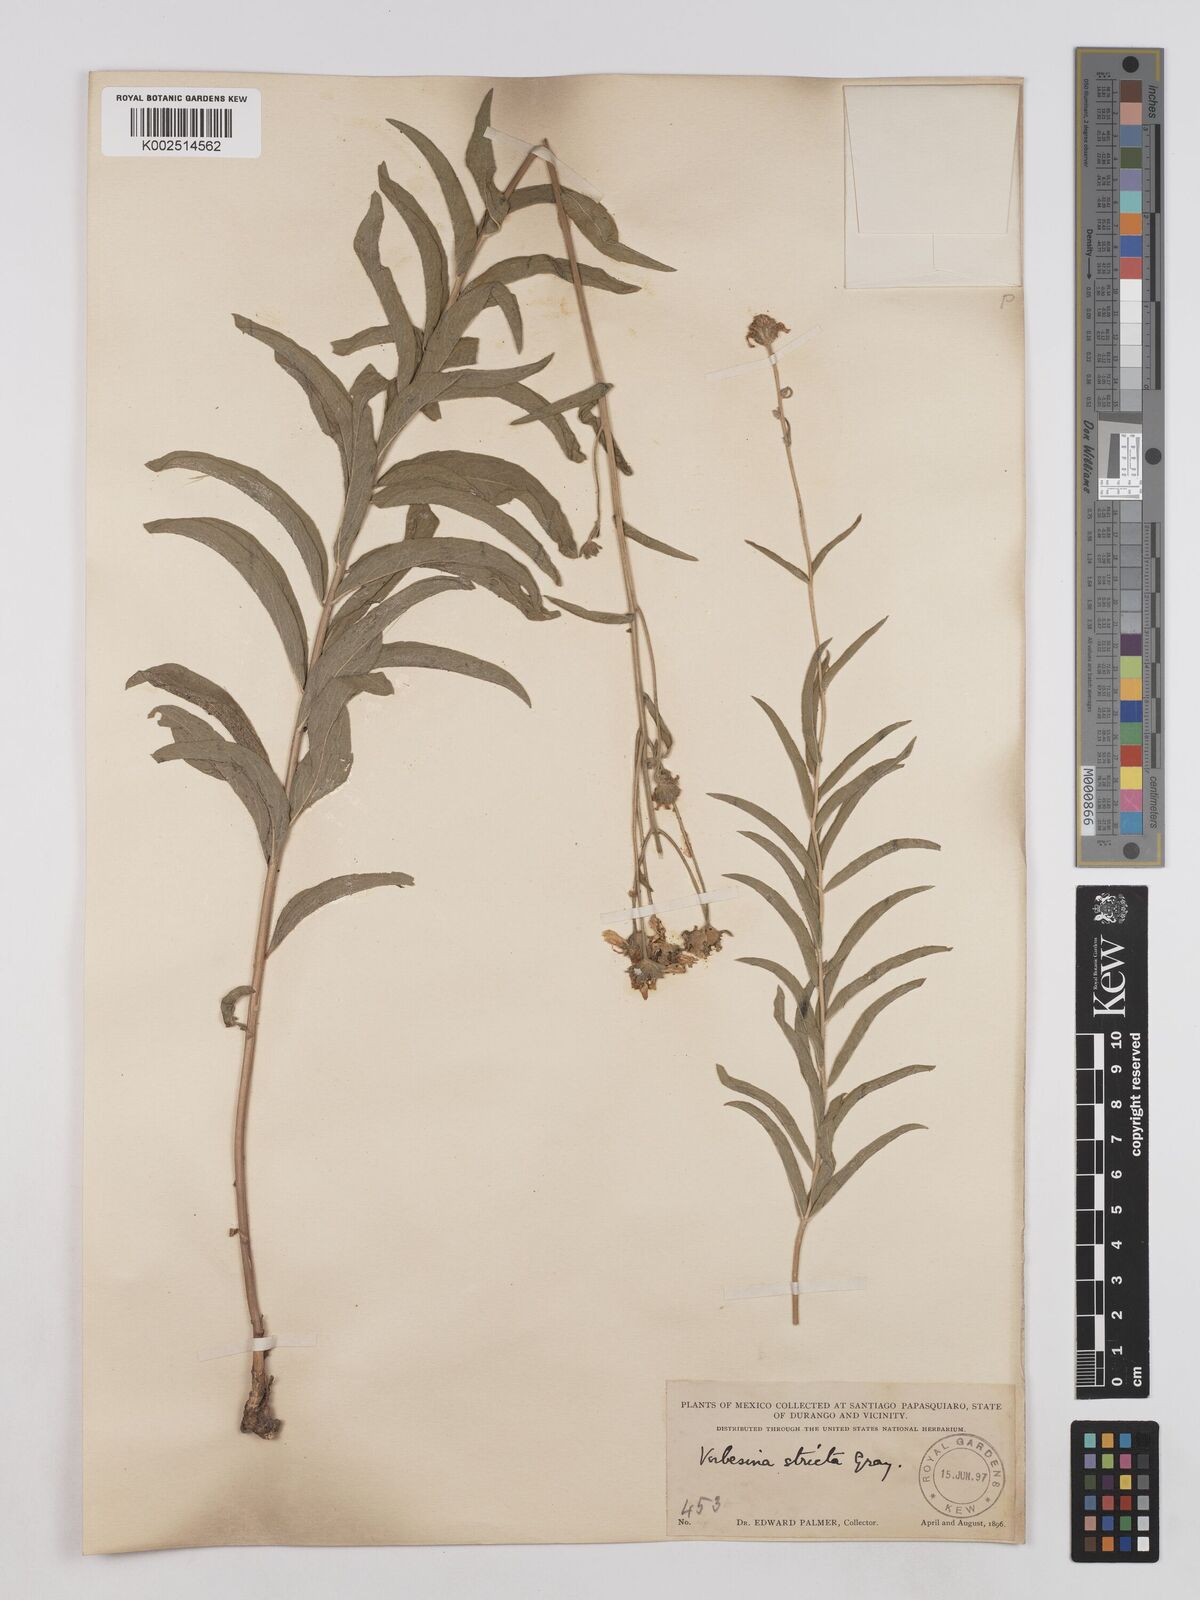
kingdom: Plantae
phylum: Tracheophyta
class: Magnoliopsida
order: Asterales
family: Asteraceae
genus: Verbesina
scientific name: Verbesina parviflora
